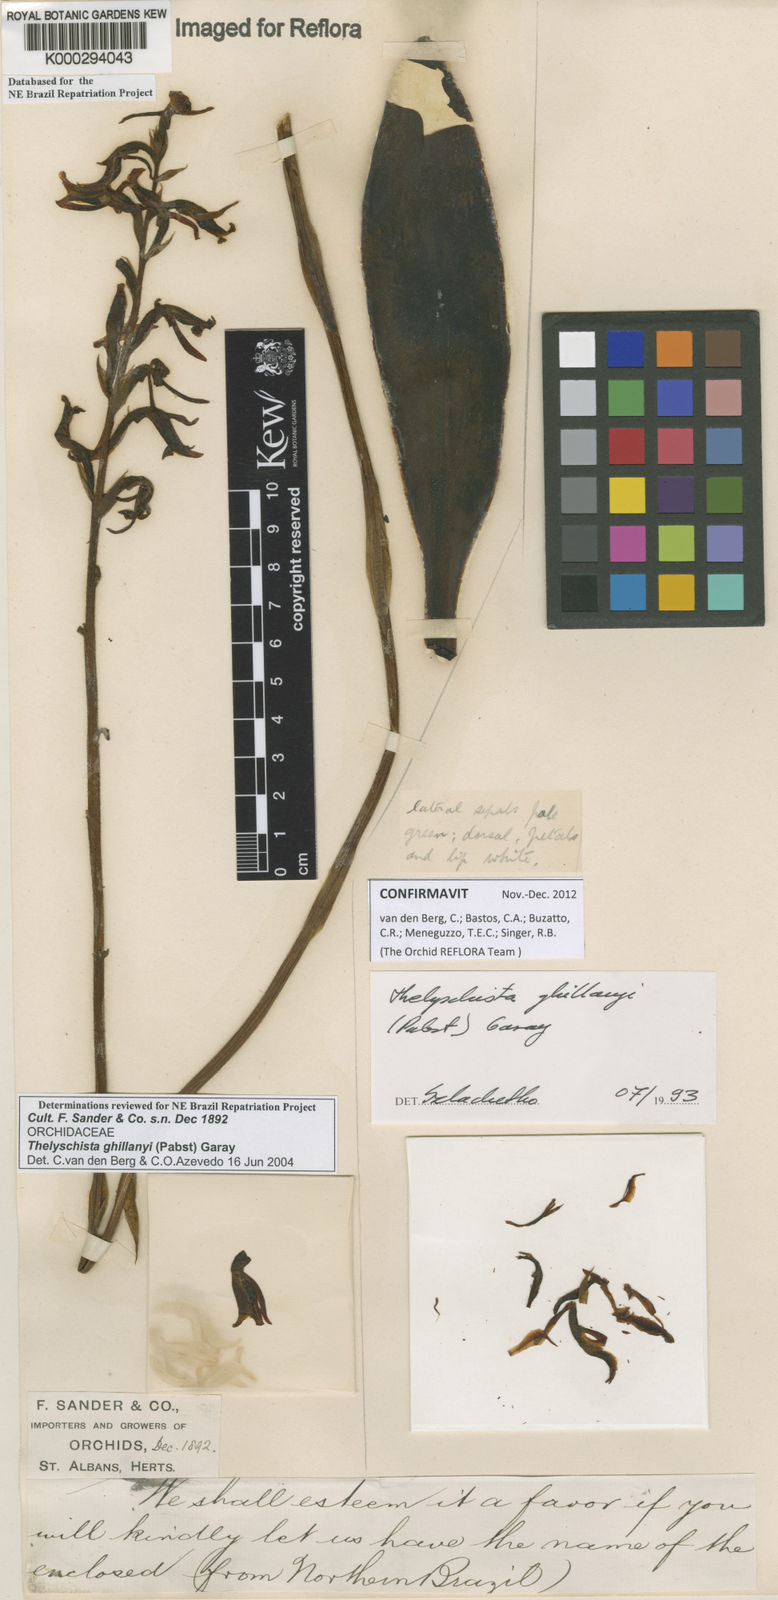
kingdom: Plantae
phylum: Tracheophyta
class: Liliopsida
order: Asparagales
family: Orchidaceae
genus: Thelyschista
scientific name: Thelyschista ghillanyi
